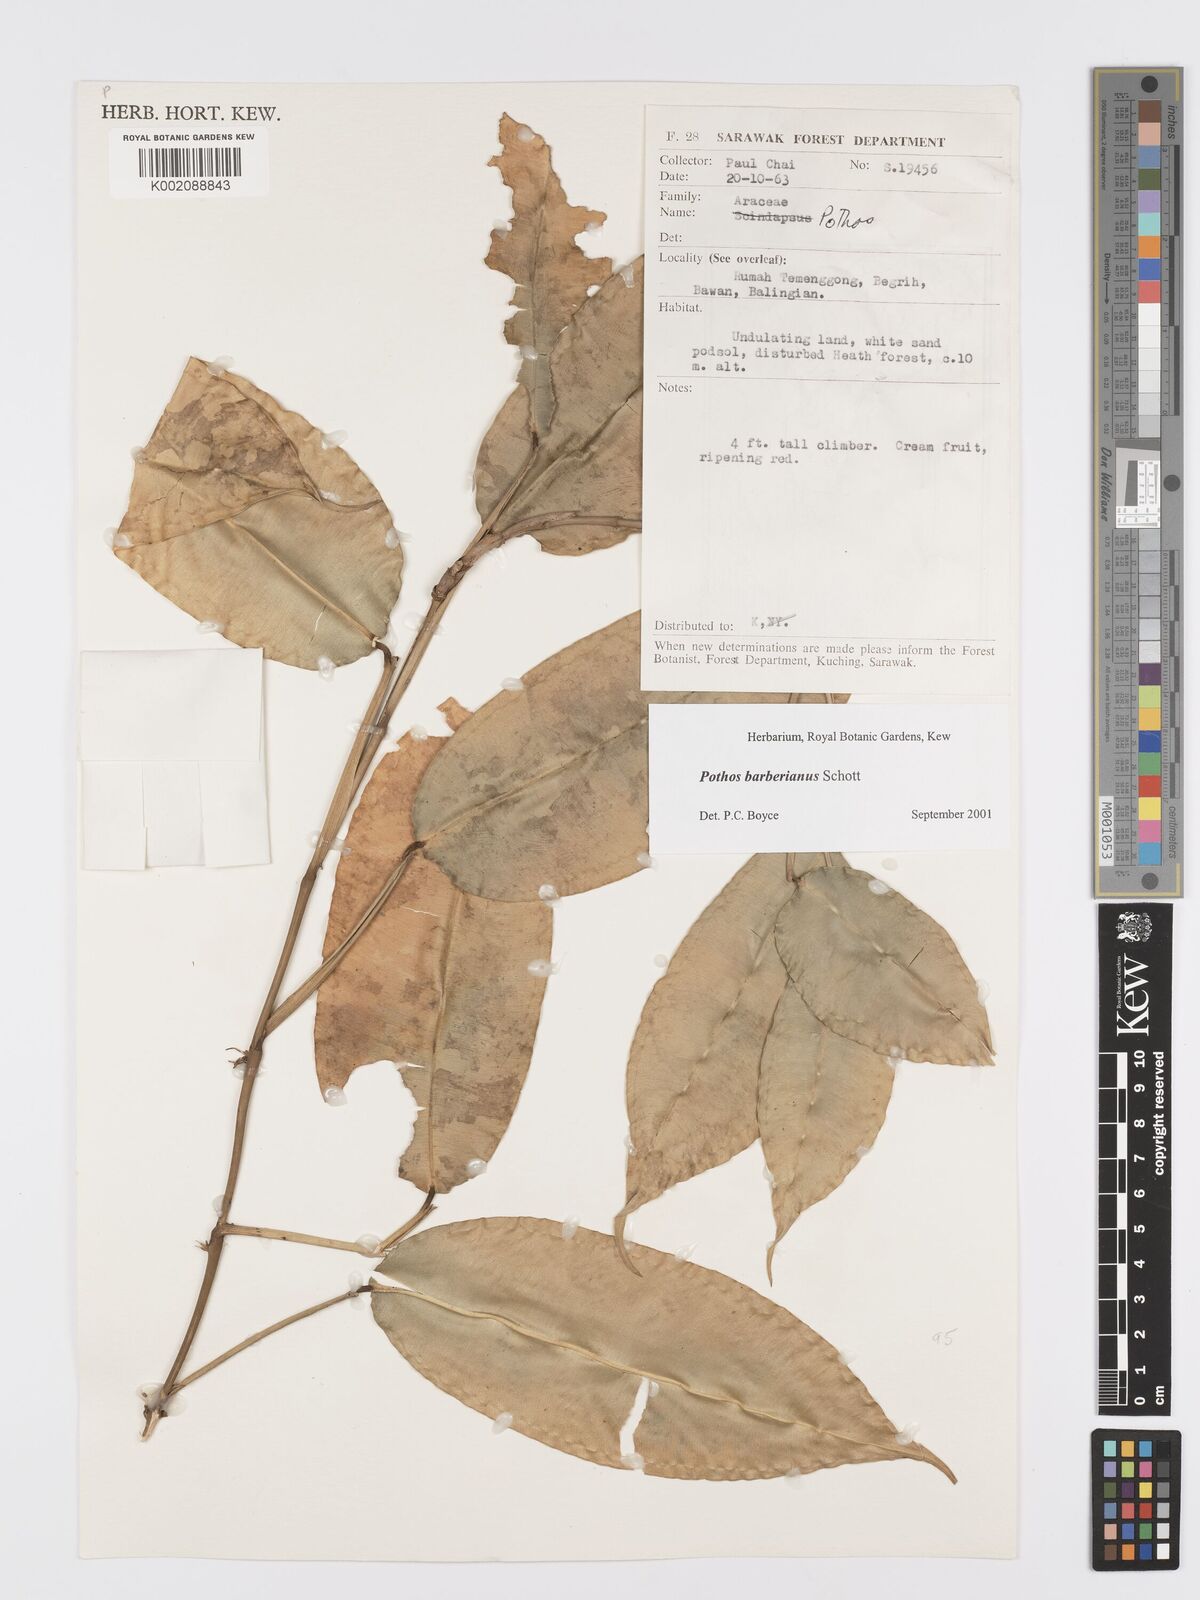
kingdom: Plantae
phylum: Tracheophyta
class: Liliopsida
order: Alismatales
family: Araceae
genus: Pothos
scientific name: Pothos barberianus
